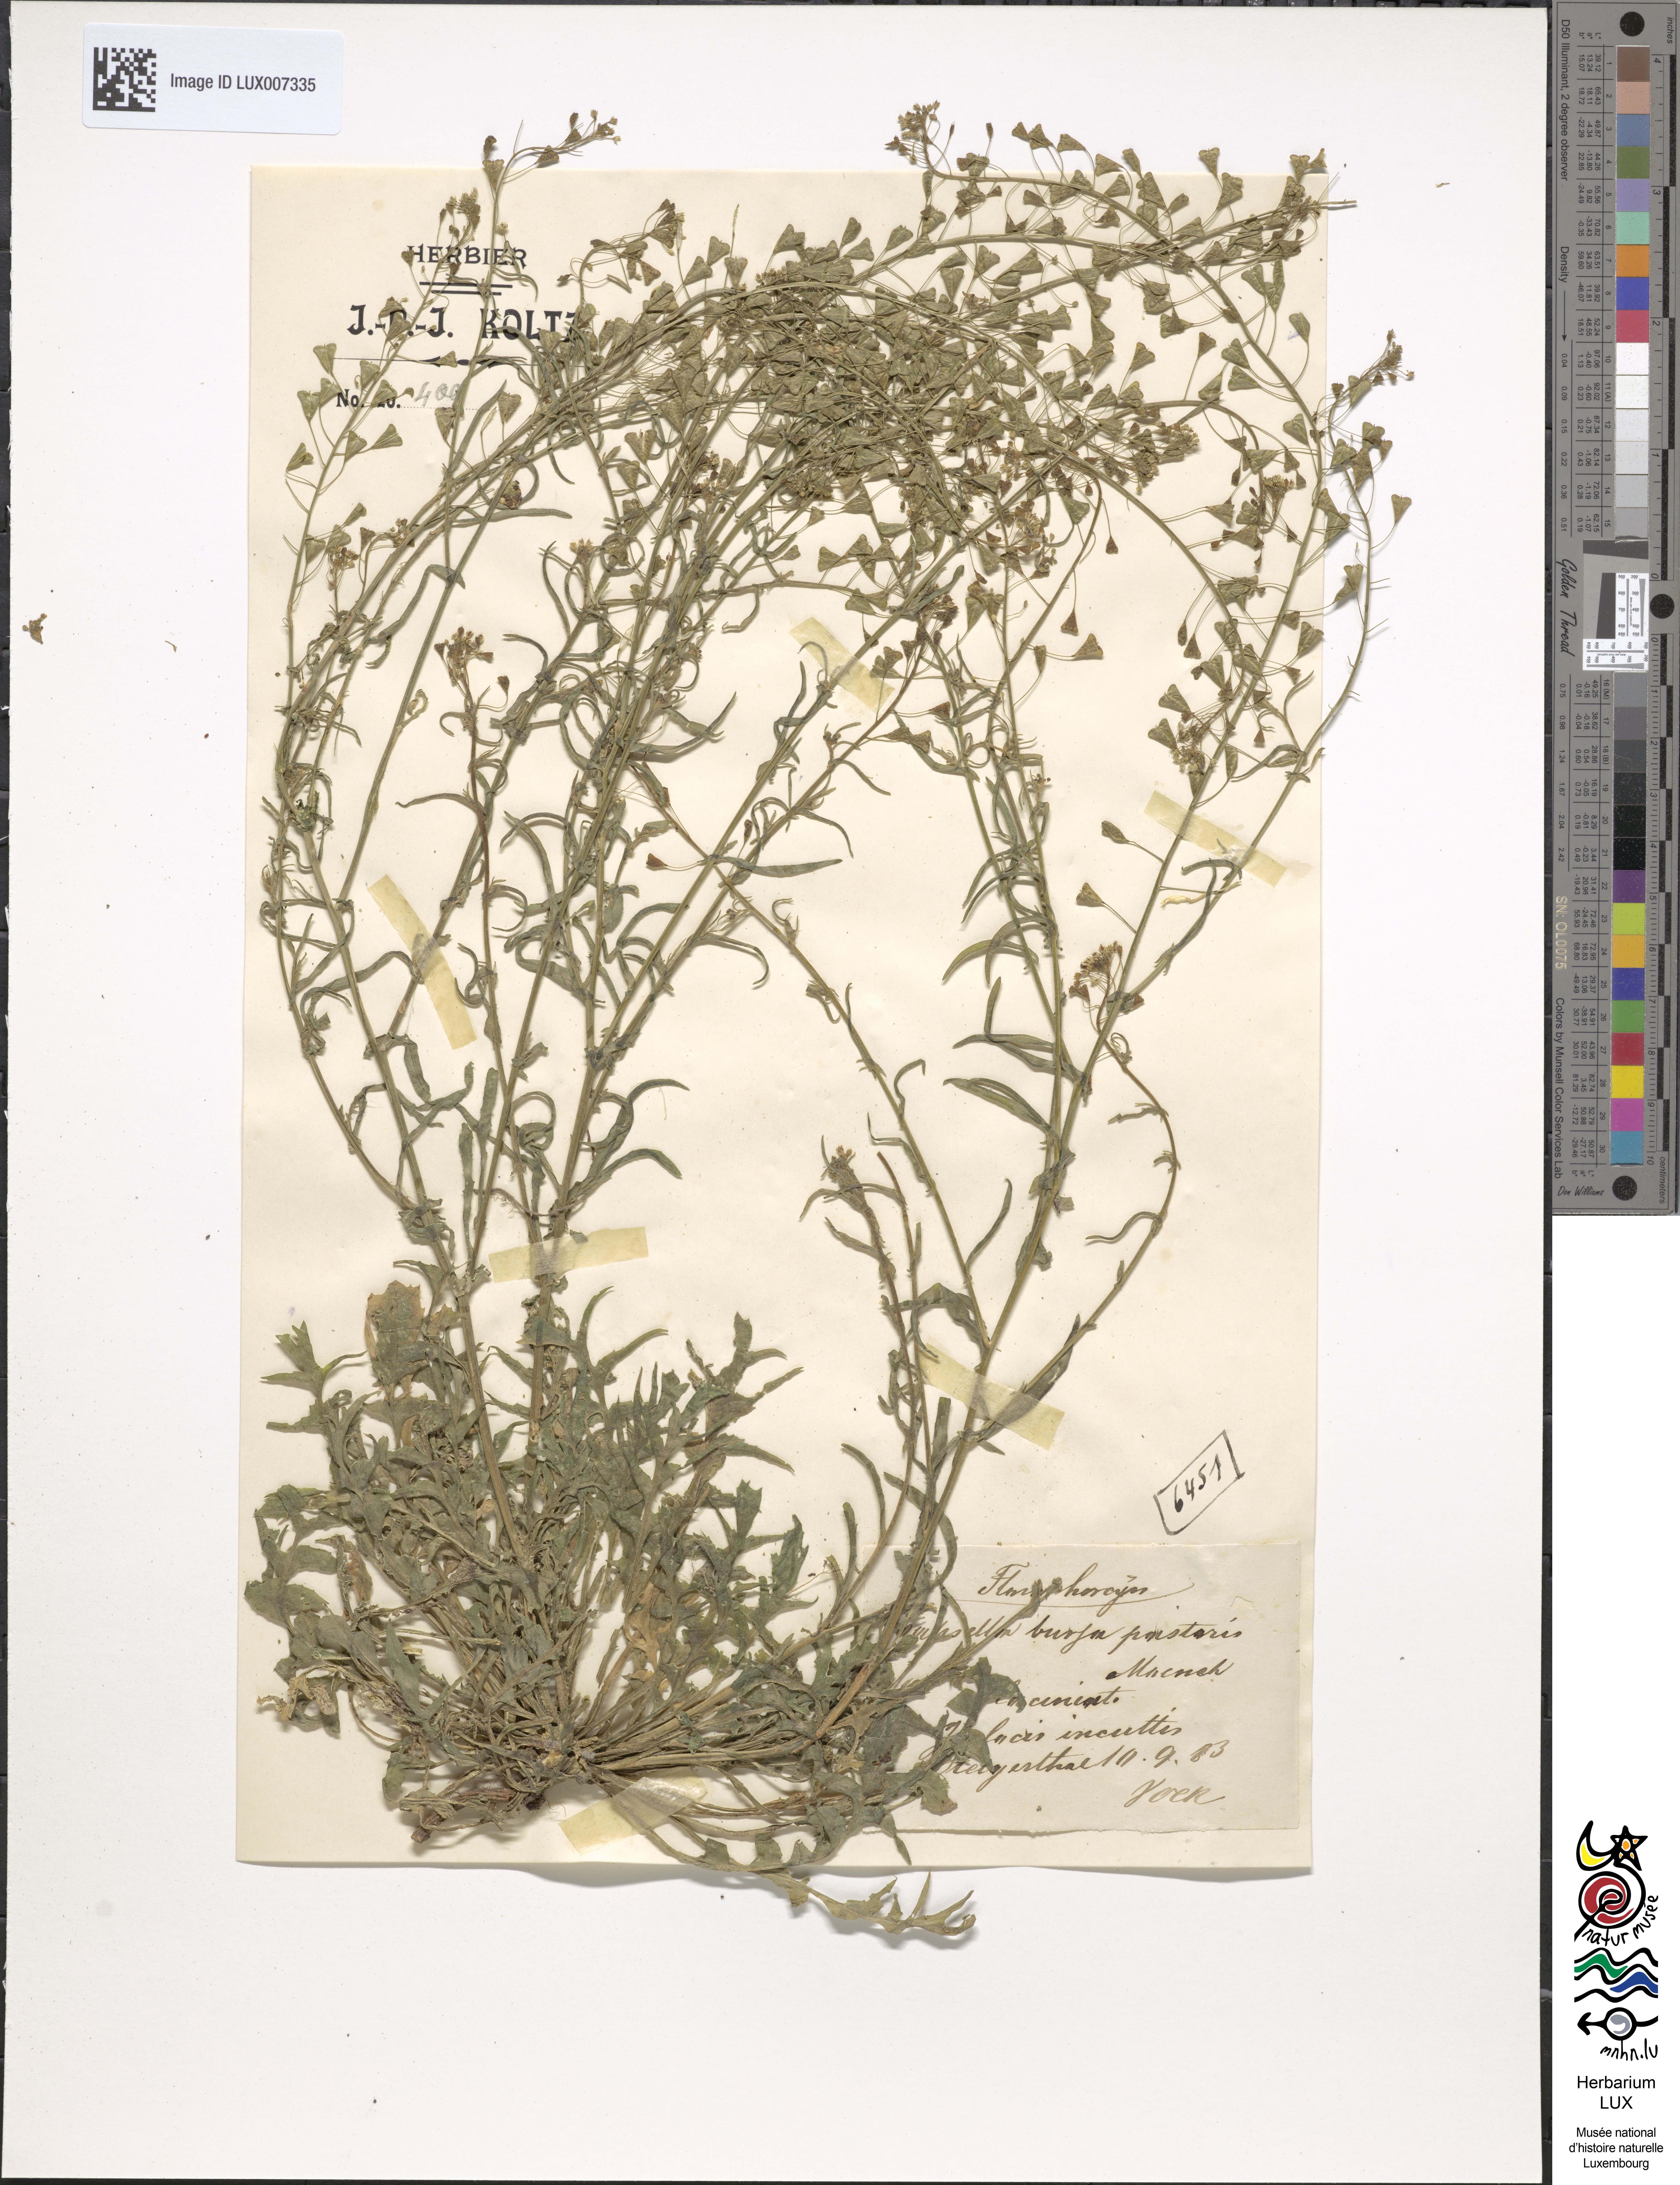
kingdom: Plantae
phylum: Tracheophyta
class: Magnoliopsida
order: Brassicales
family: Brassicaceae
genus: Capsella
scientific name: Capsella bursa-pastoris
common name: Shepherd's purse
